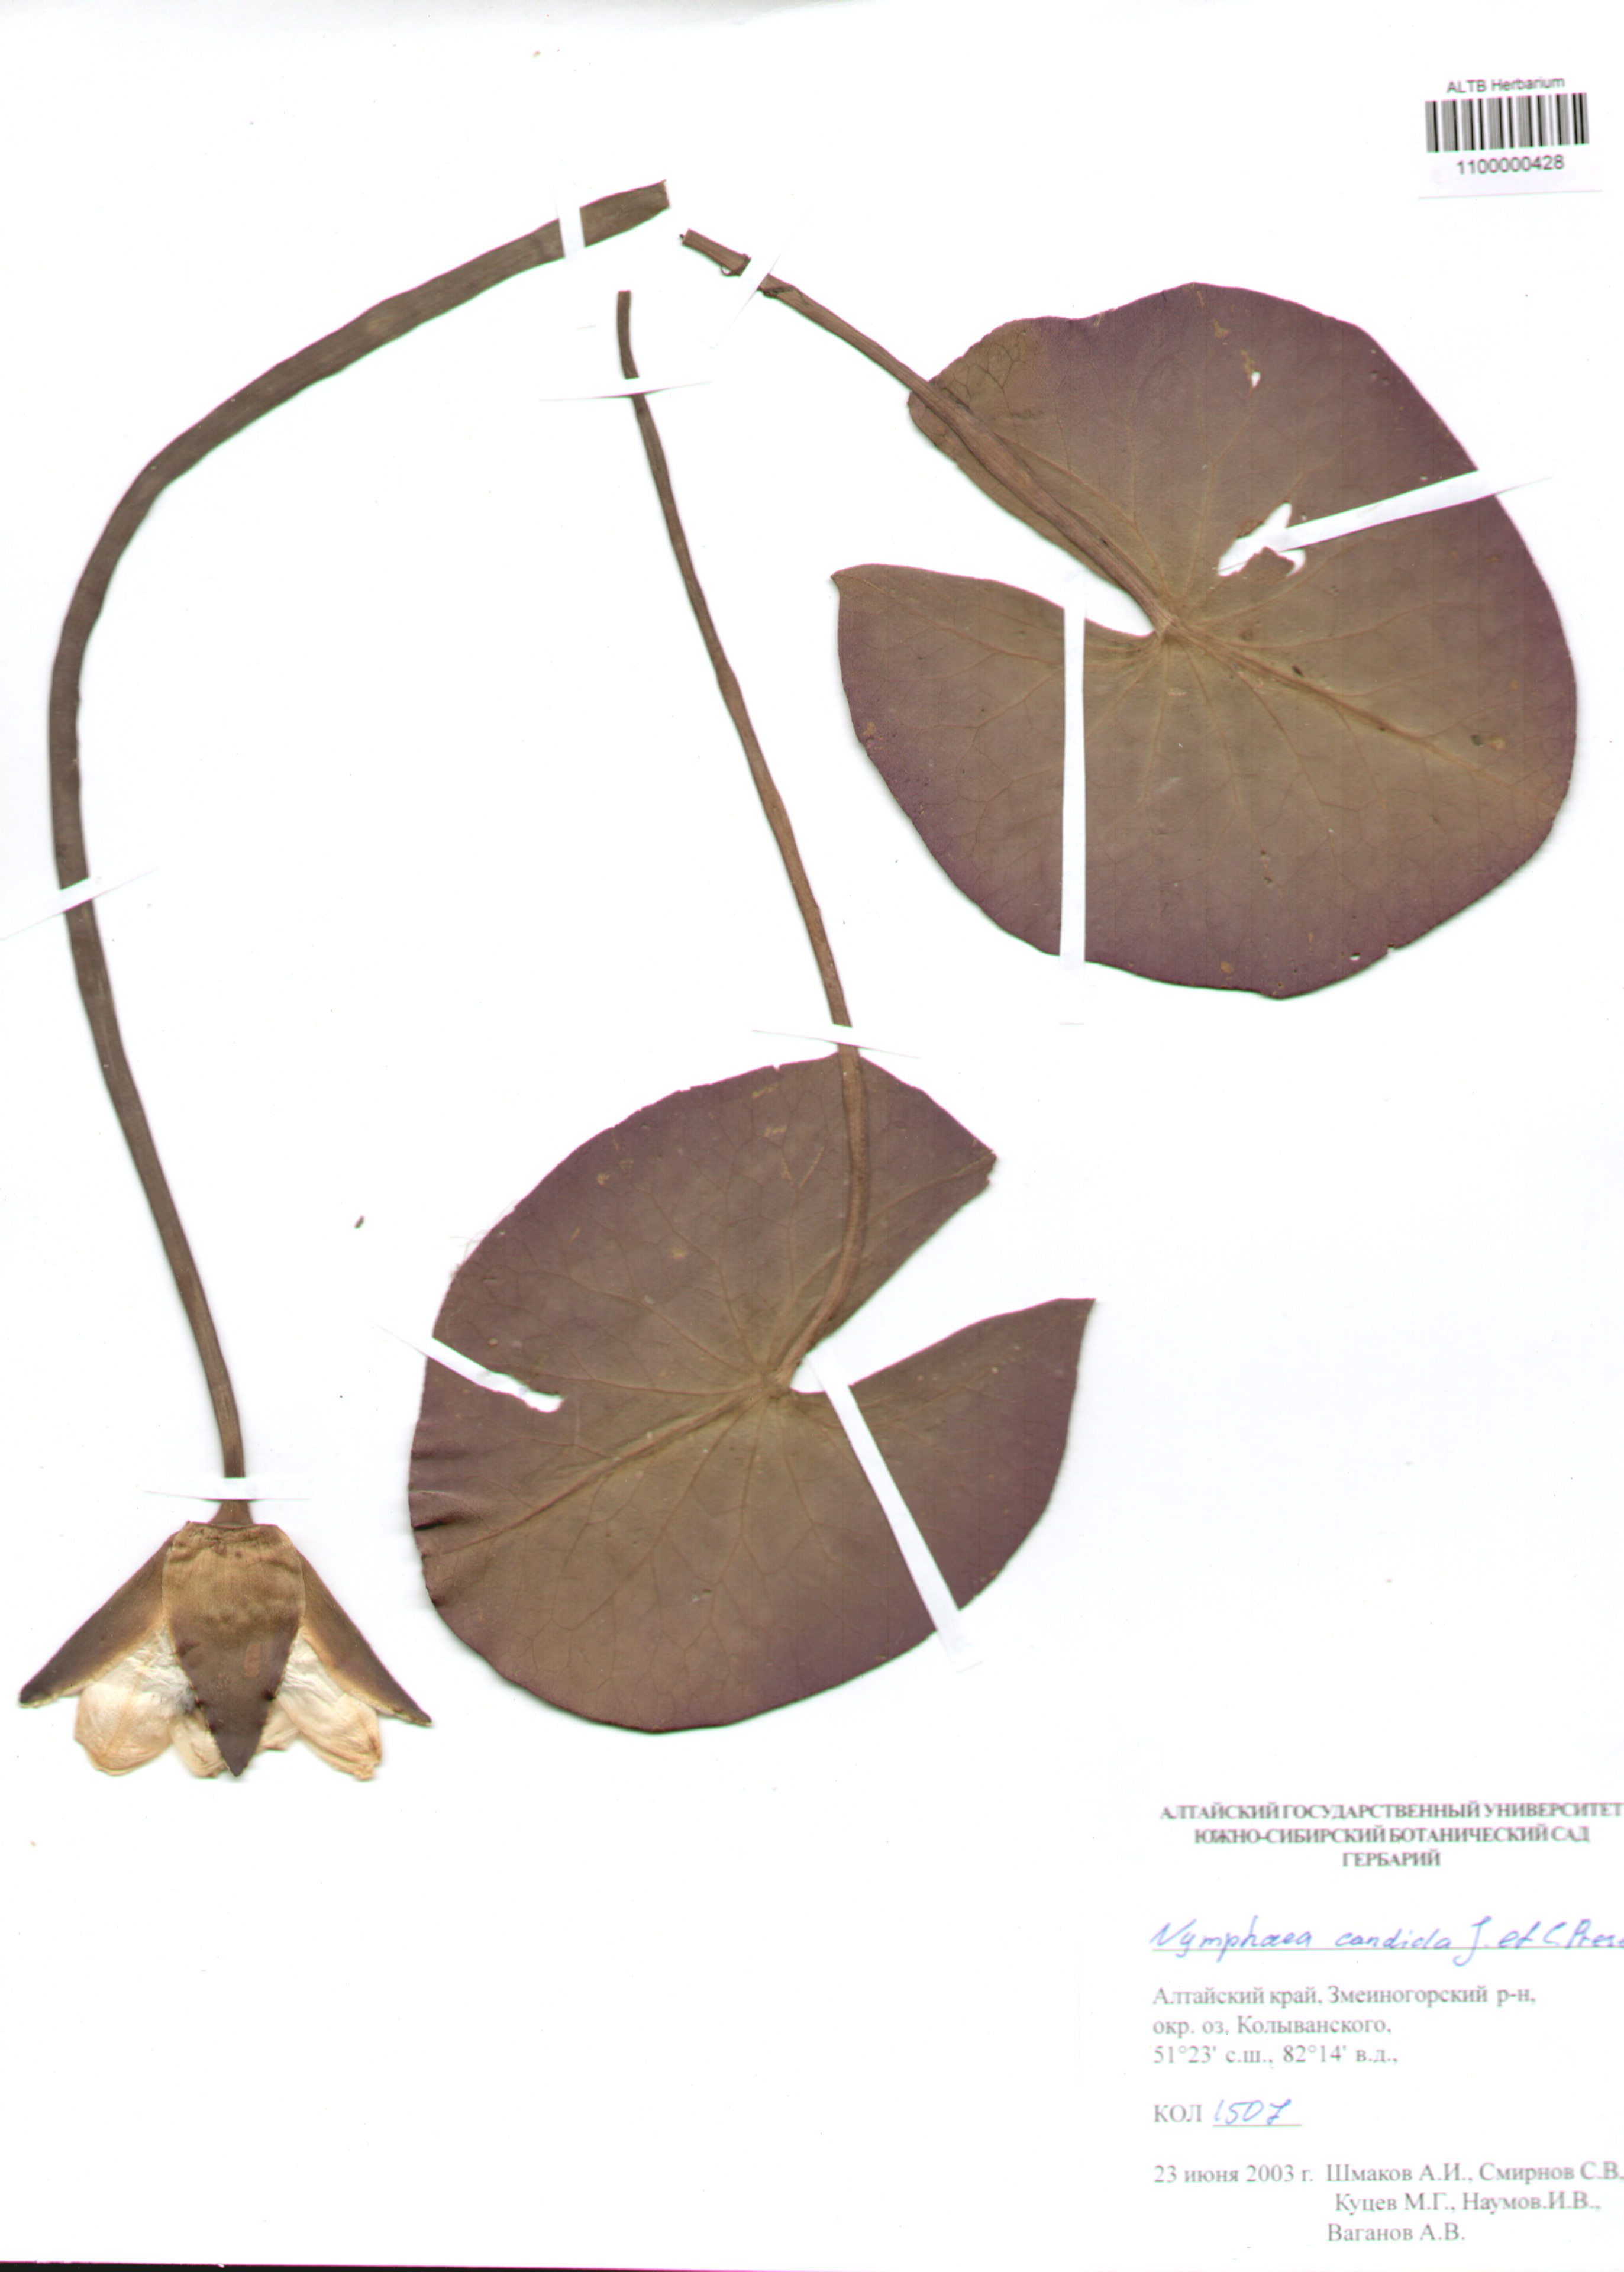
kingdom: Plantae
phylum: Tracheophyta
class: Magnoliopsida
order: Nymphaeales
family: Nymphaeaceae
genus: Nymphaea
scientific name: Nymphaea candida
